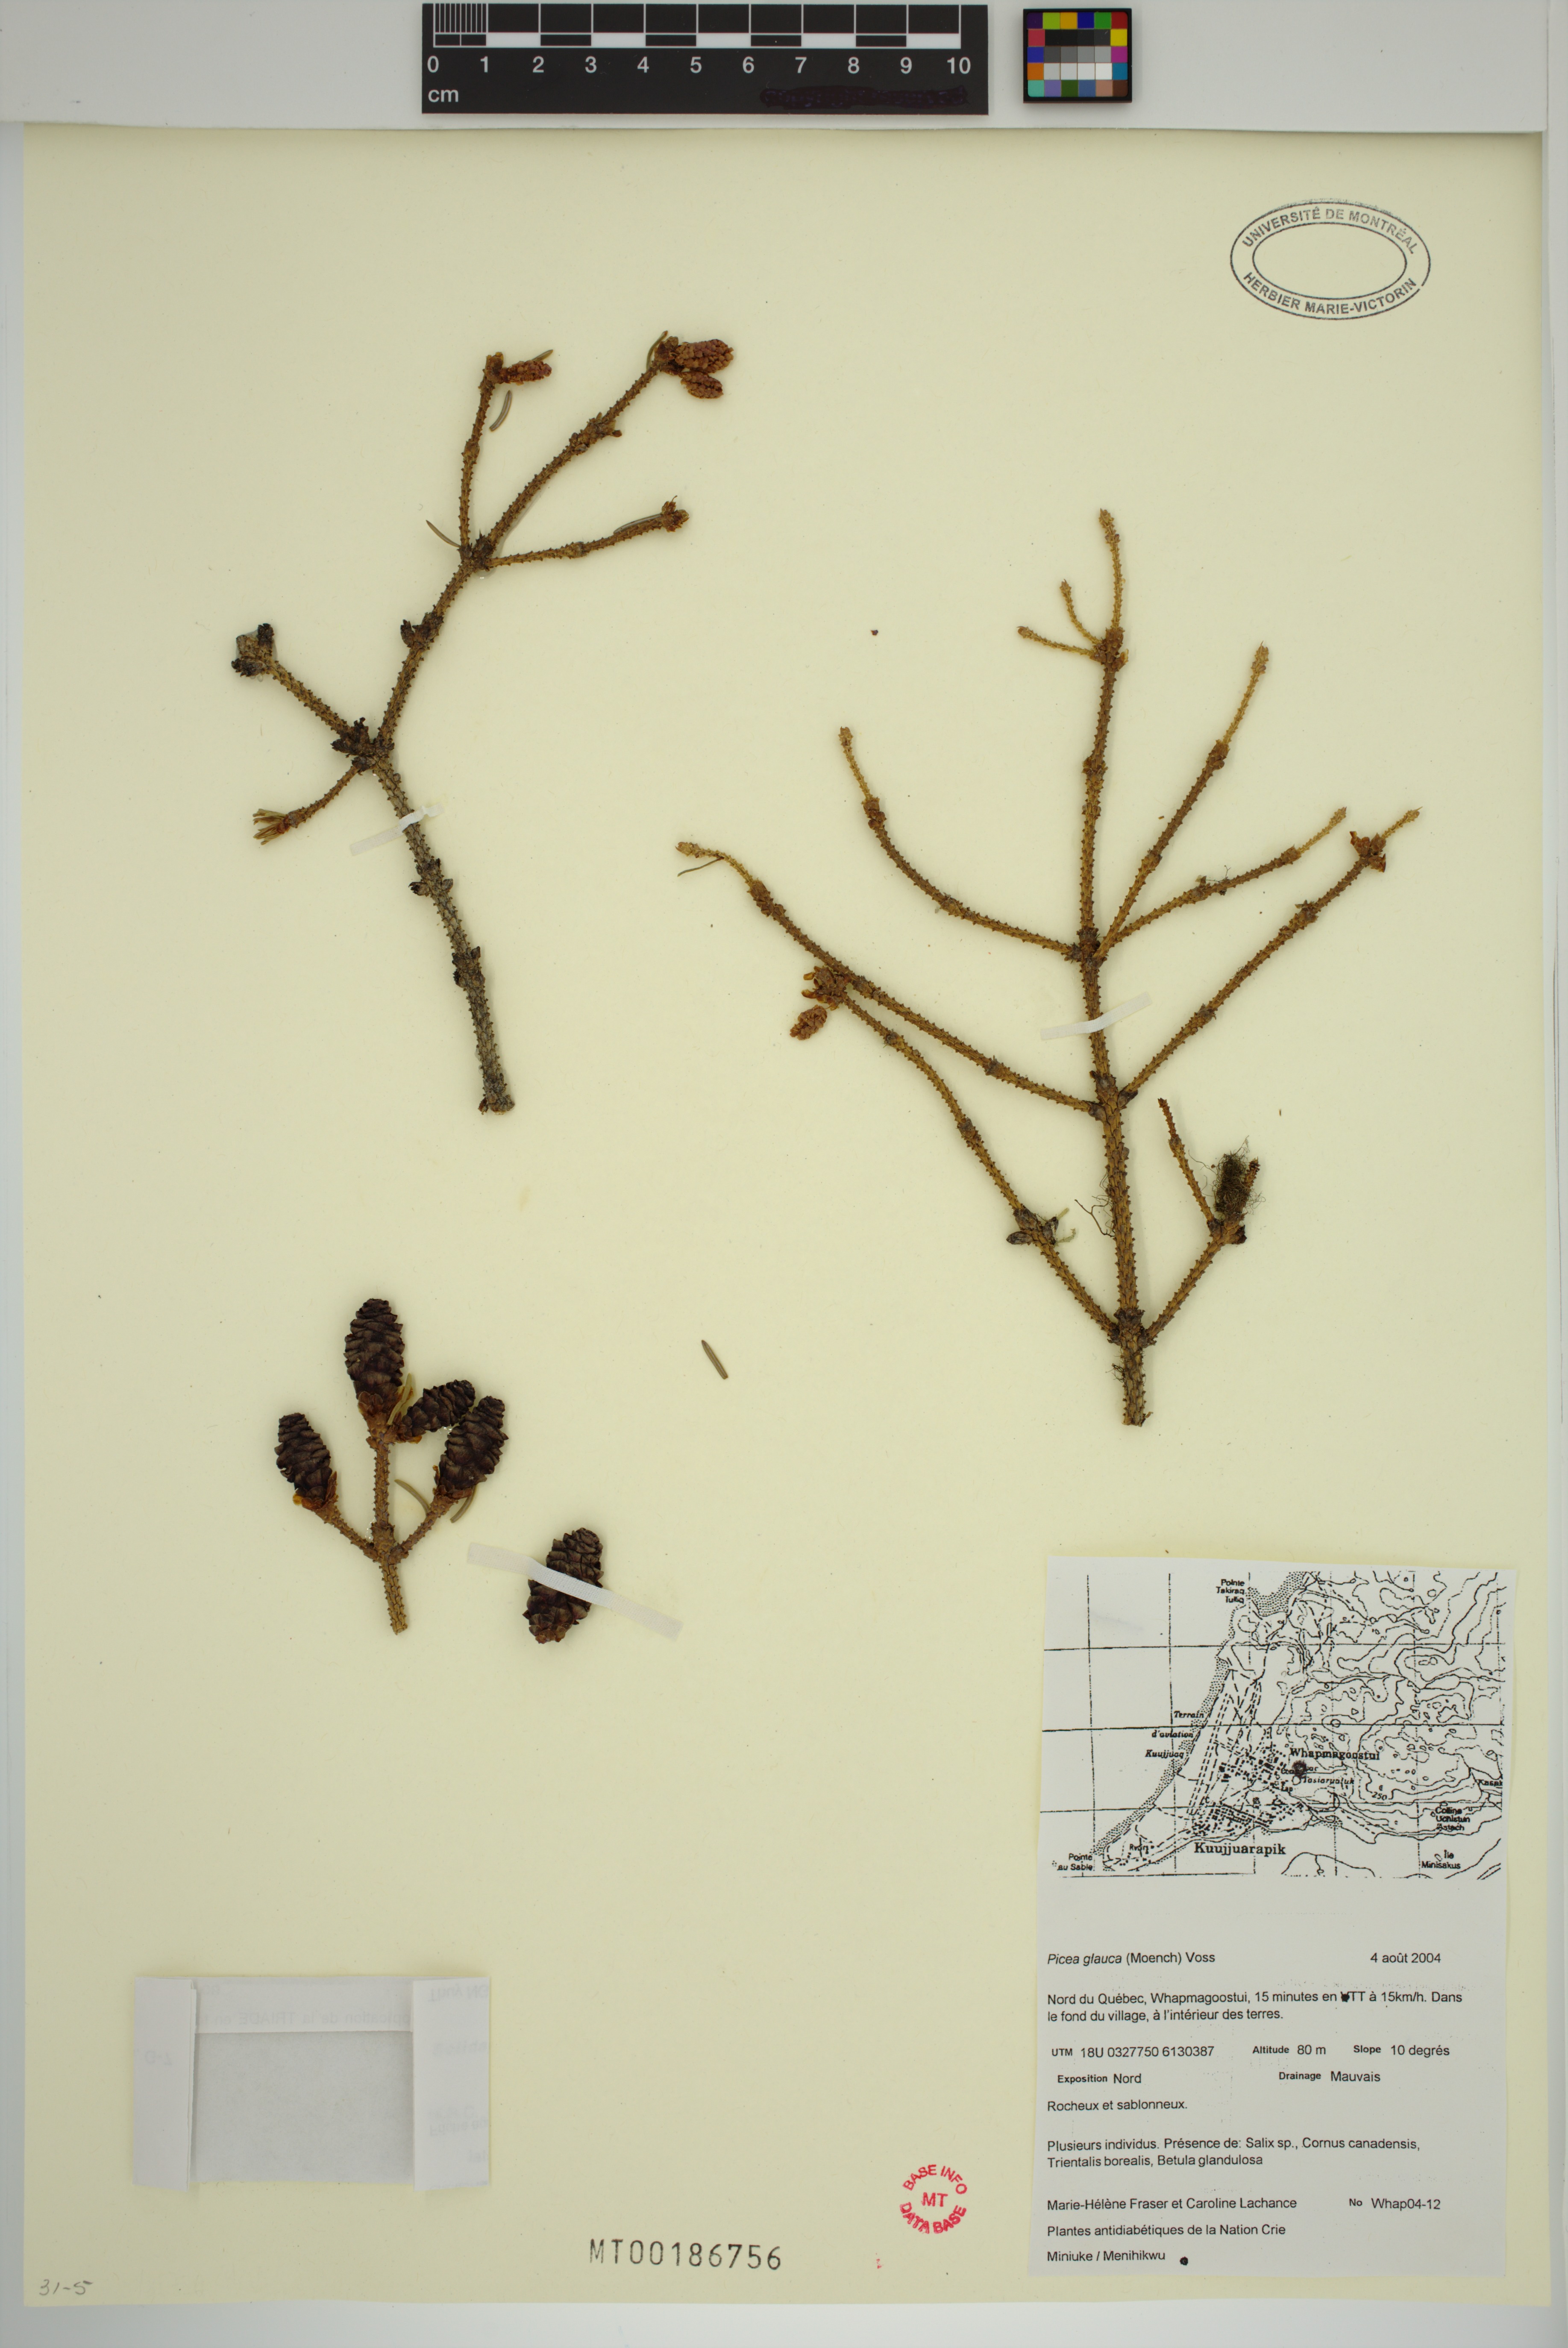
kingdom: Plantae
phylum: Tracheophyta
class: Pinopsida
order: Pinales
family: Pinaceae
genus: Picea
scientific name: Picea glauca
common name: White spruce
